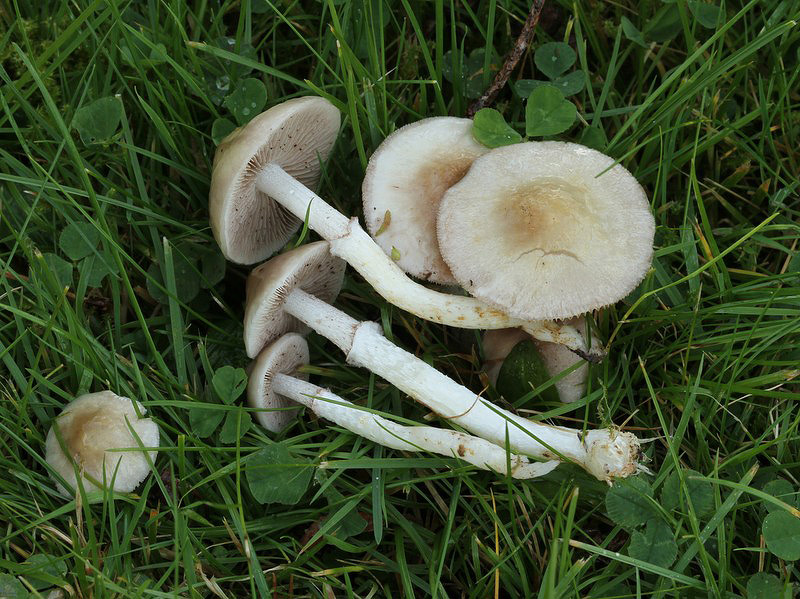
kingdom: Fungi
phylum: Basidiomycota
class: Agaricomycetes
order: Agaricales
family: Strophariaceae
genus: Stropharia
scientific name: Stropharia inuncta
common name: lillabrun bredblad
